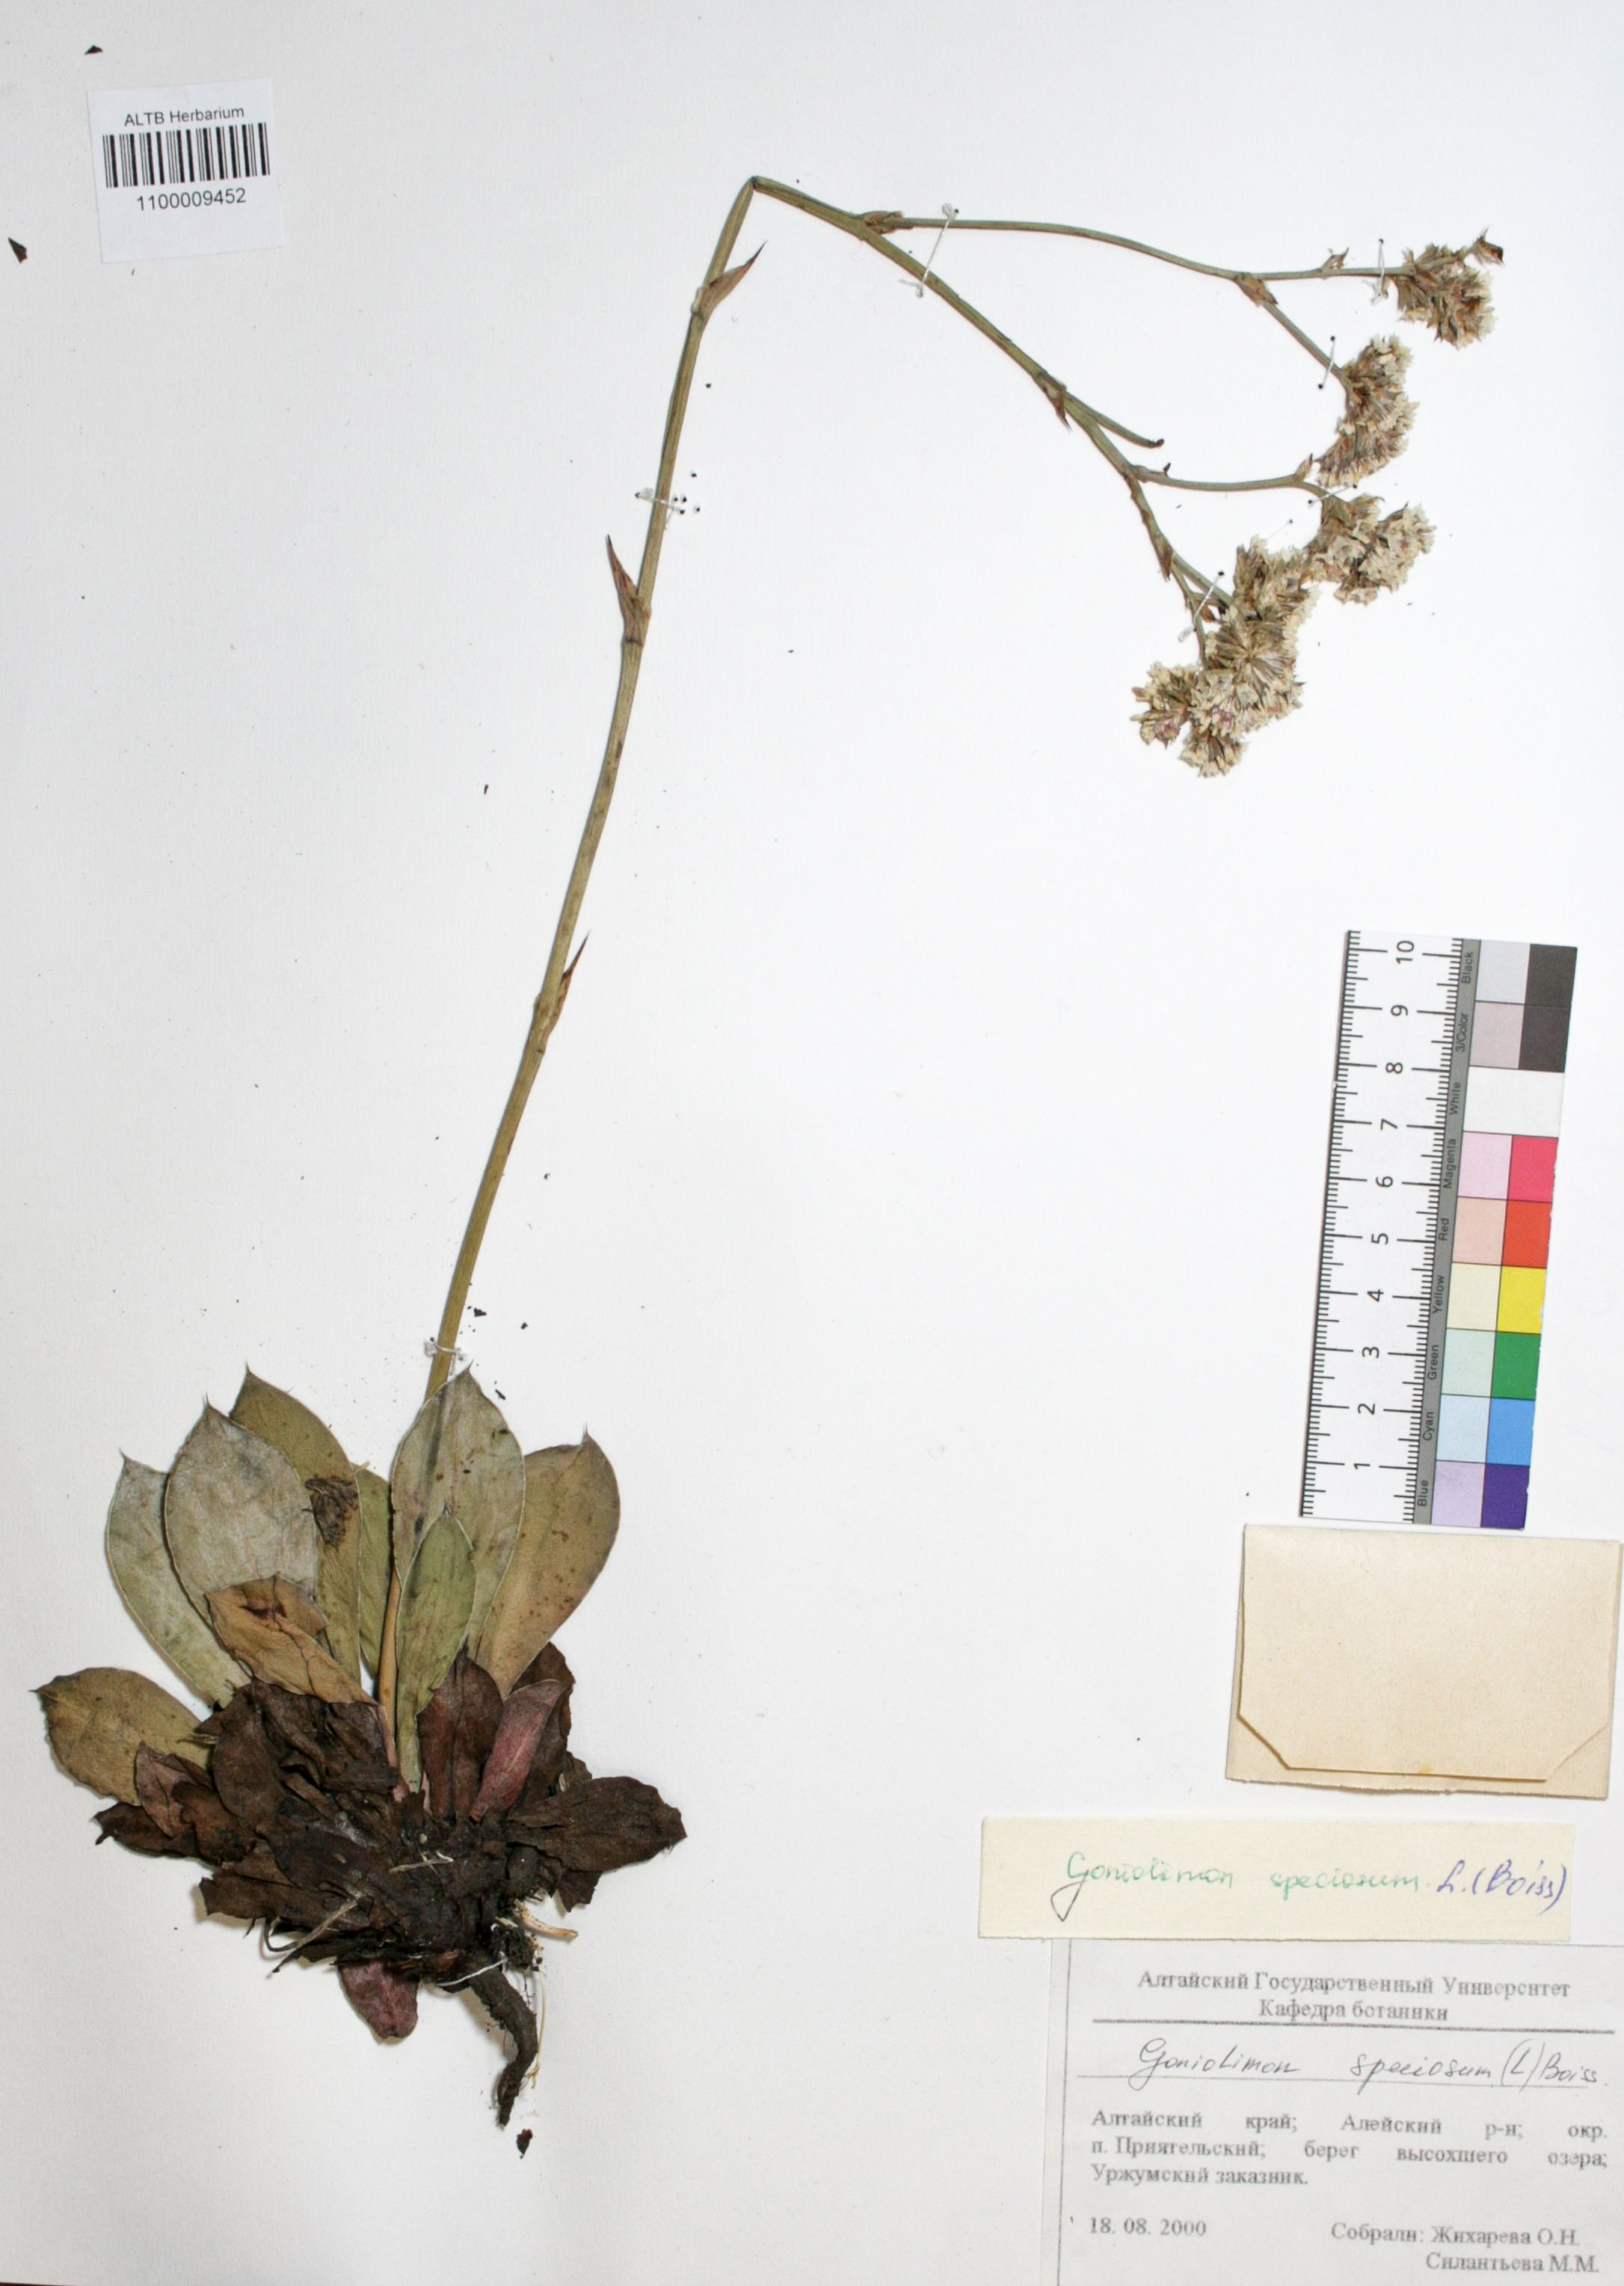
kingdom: Plantae
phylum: Tracheophyta
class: Magnoliopsida
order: Caryophyllales
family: Plumbaginaceae
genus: Goniolimon
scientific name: Goniolimon speciosum
